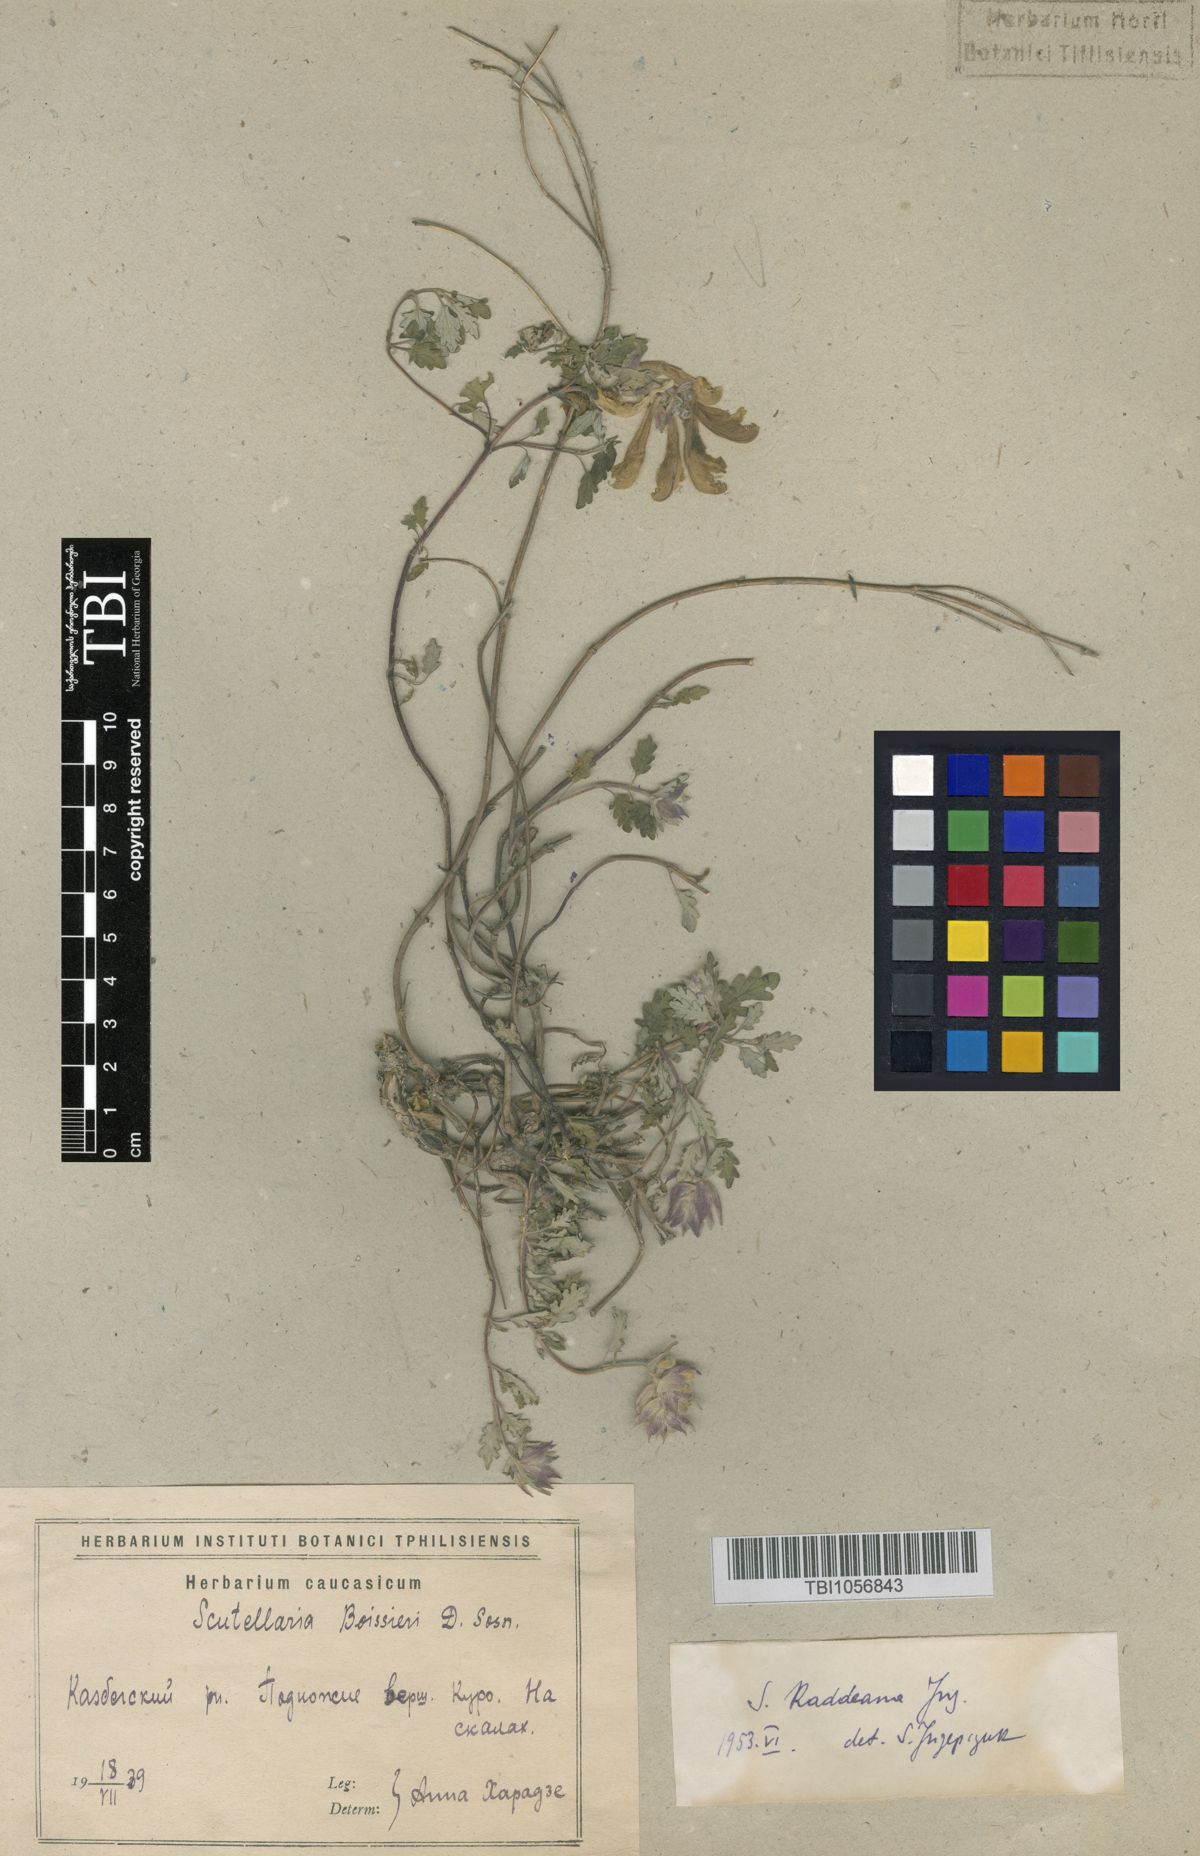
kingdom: Plantae
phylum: Tracheophyta
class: Magnoliopsida
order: Lamiales
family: Lamiaceae
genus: Scutellaria
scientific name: Scutellaria raddeana
